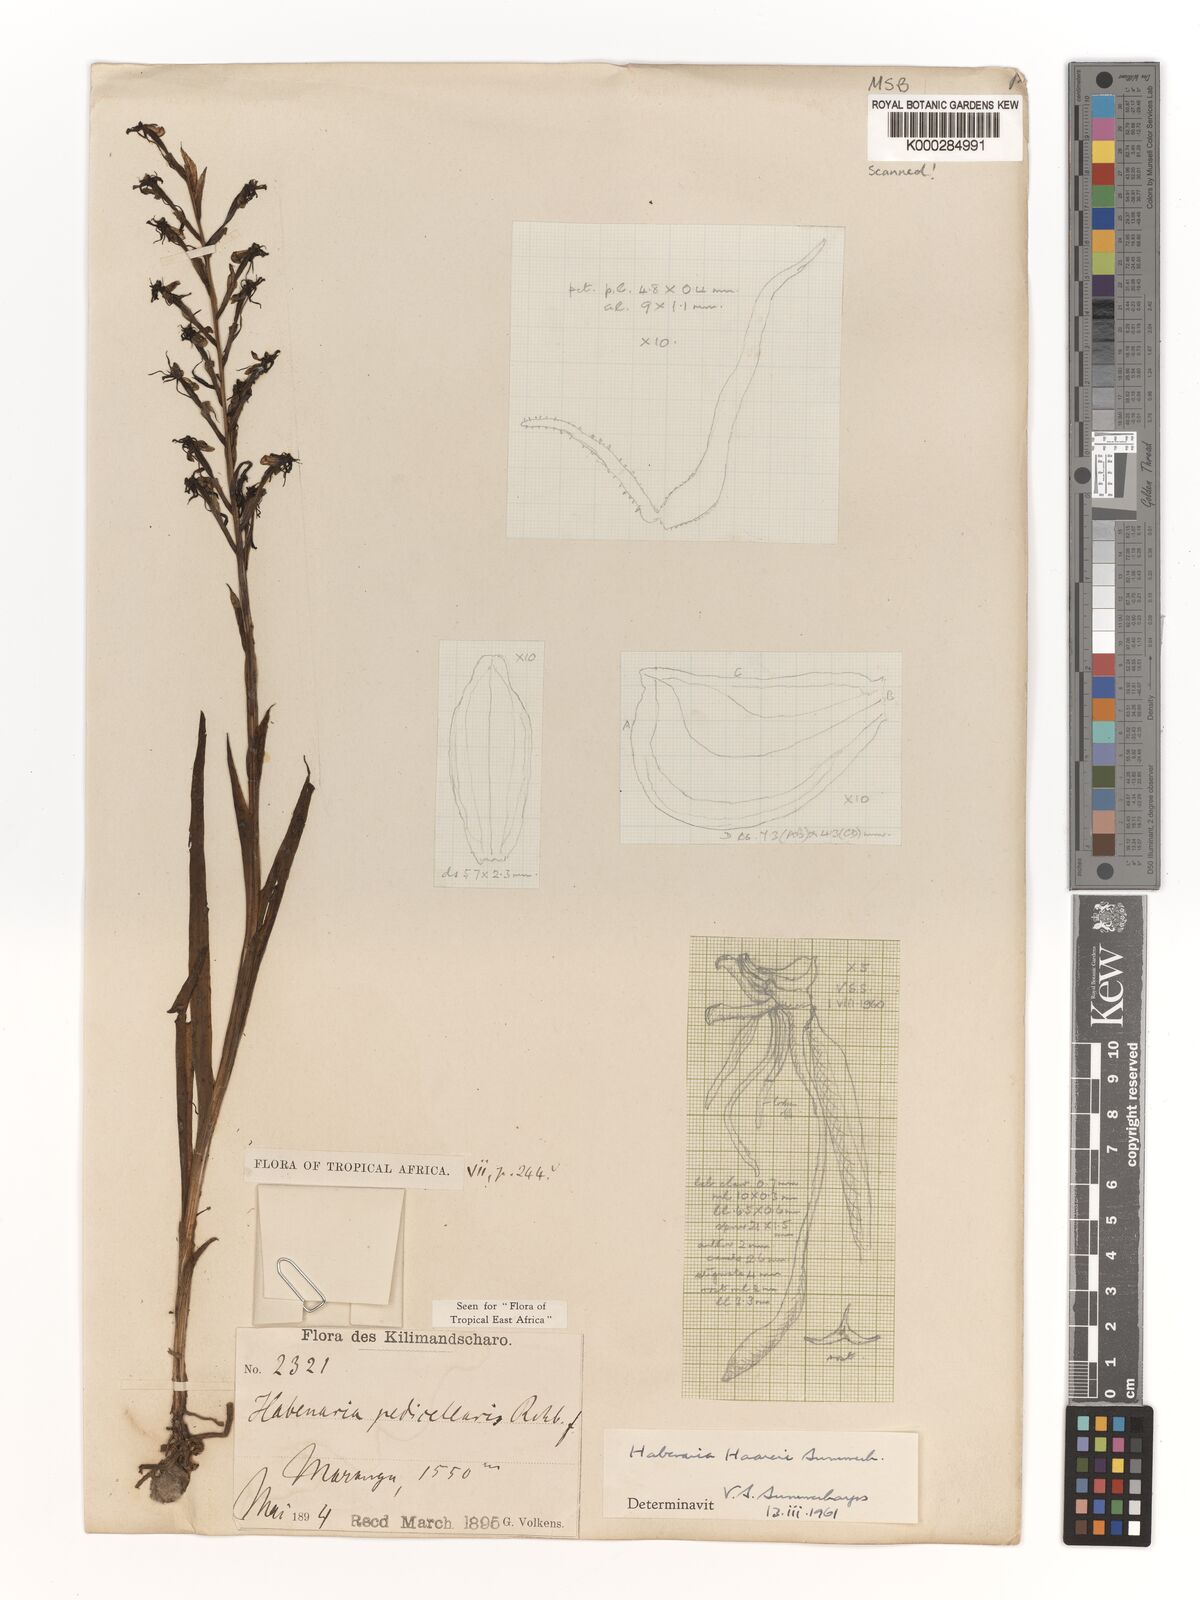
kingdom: Plantae
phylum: Tracheophyta
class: Liliopsida
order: Asparagales
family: Orchidaceae
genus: Habenaria
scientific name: Habenaria haareri
